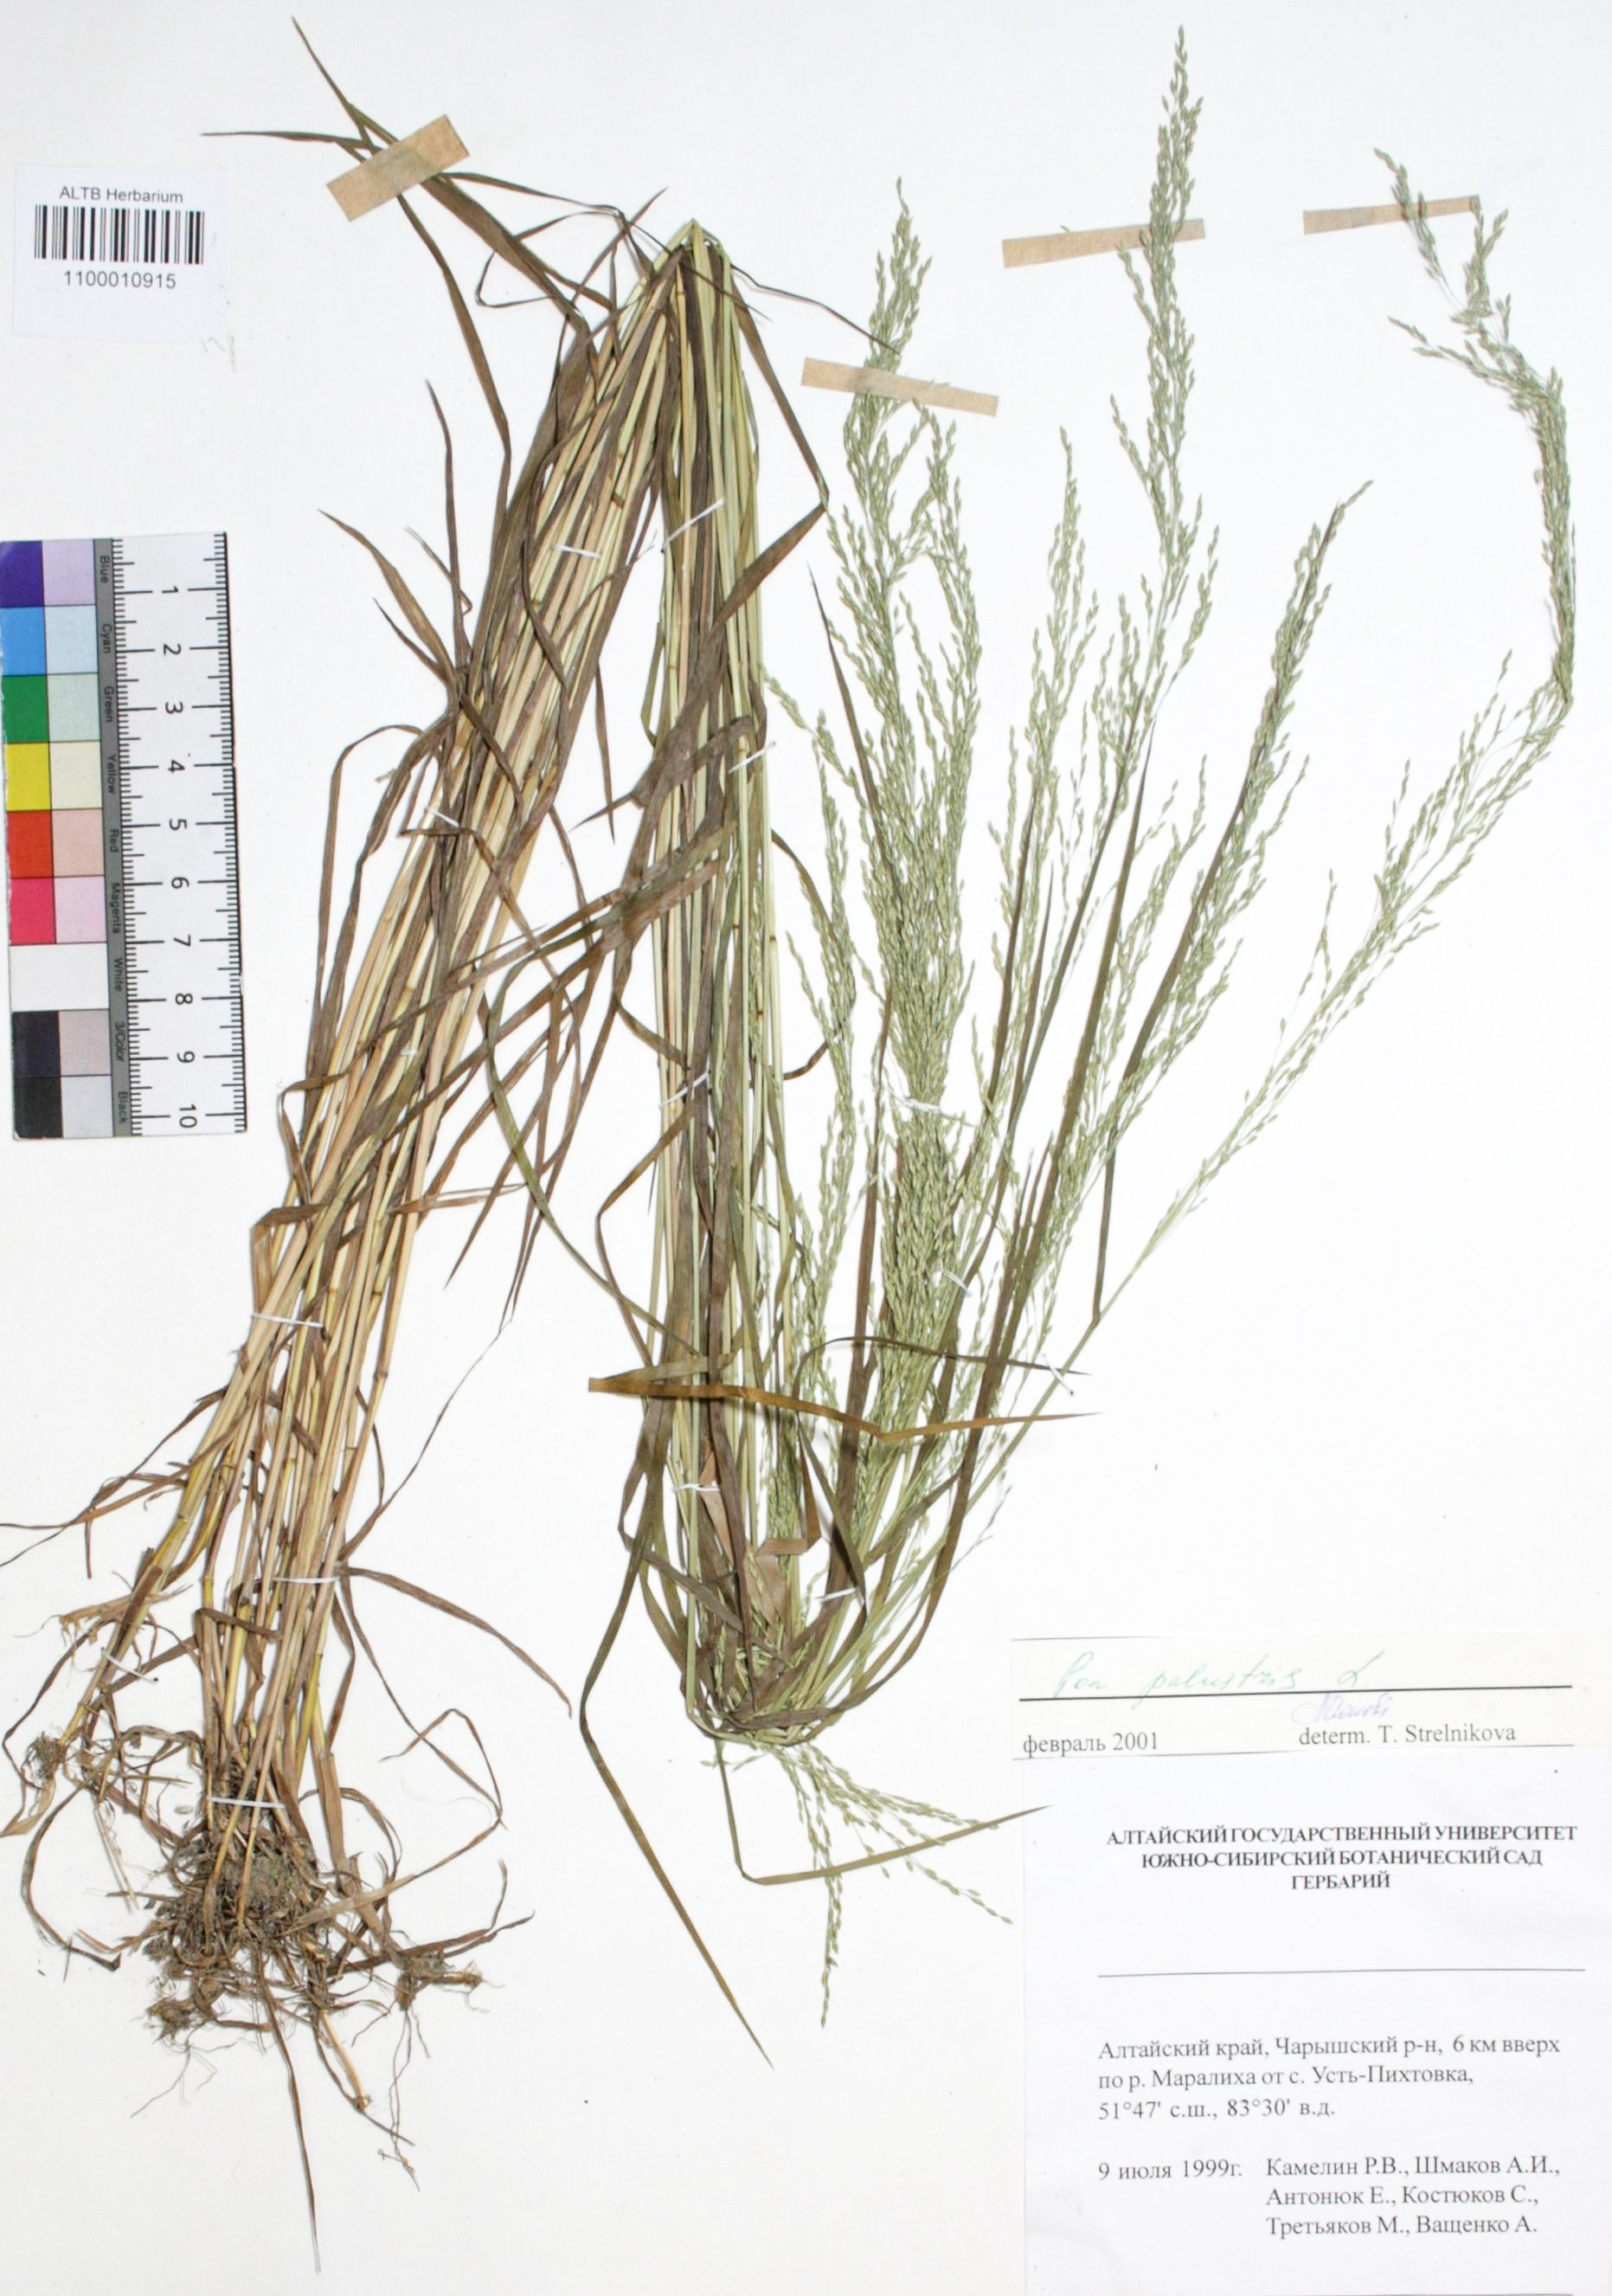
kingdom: Plantae
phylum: Tracheophyta
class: Liliopsida
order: Poales
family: Poaceae
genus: Poa
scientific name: Poa palustris
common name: Swamp meadow-grass
